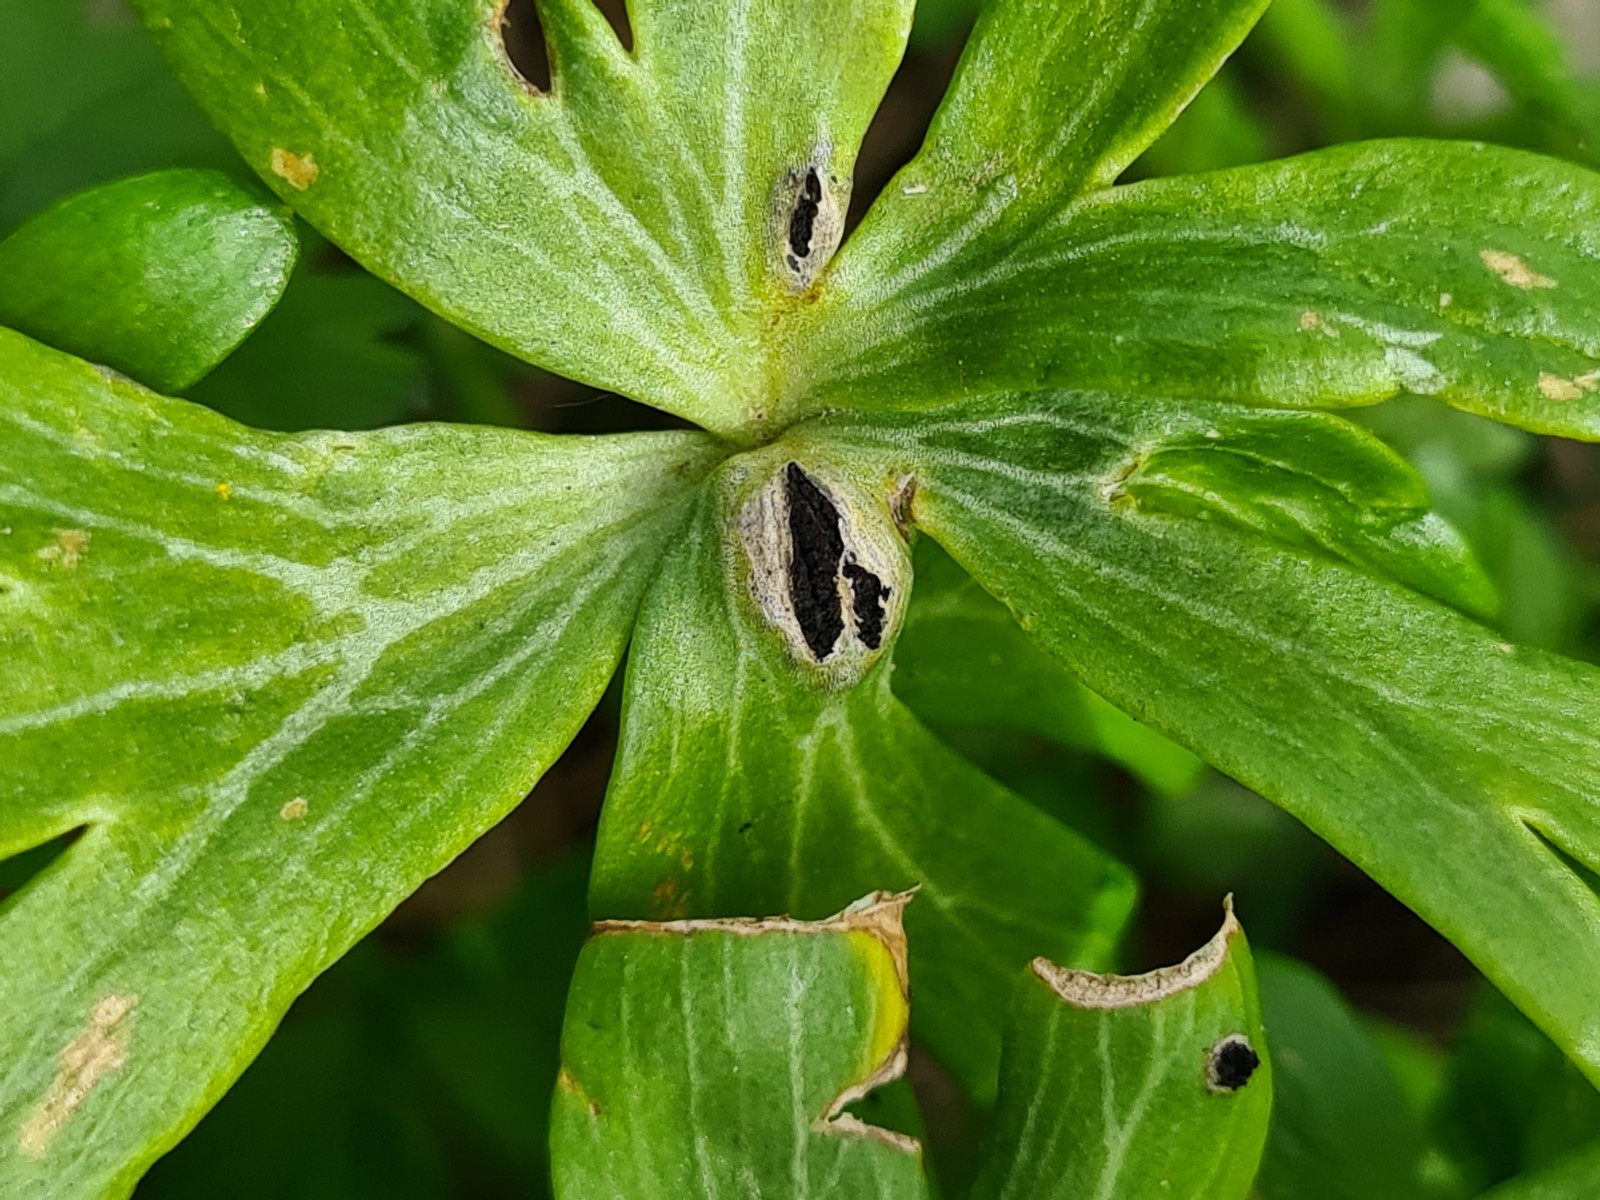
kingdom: Fungi
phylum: Basidiomycota
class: Ustilaginomycetes
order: Urocystidales
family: Urocystidaceae
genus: Urocystis
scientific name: Urocystis eranthidis
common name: erantis-brand
